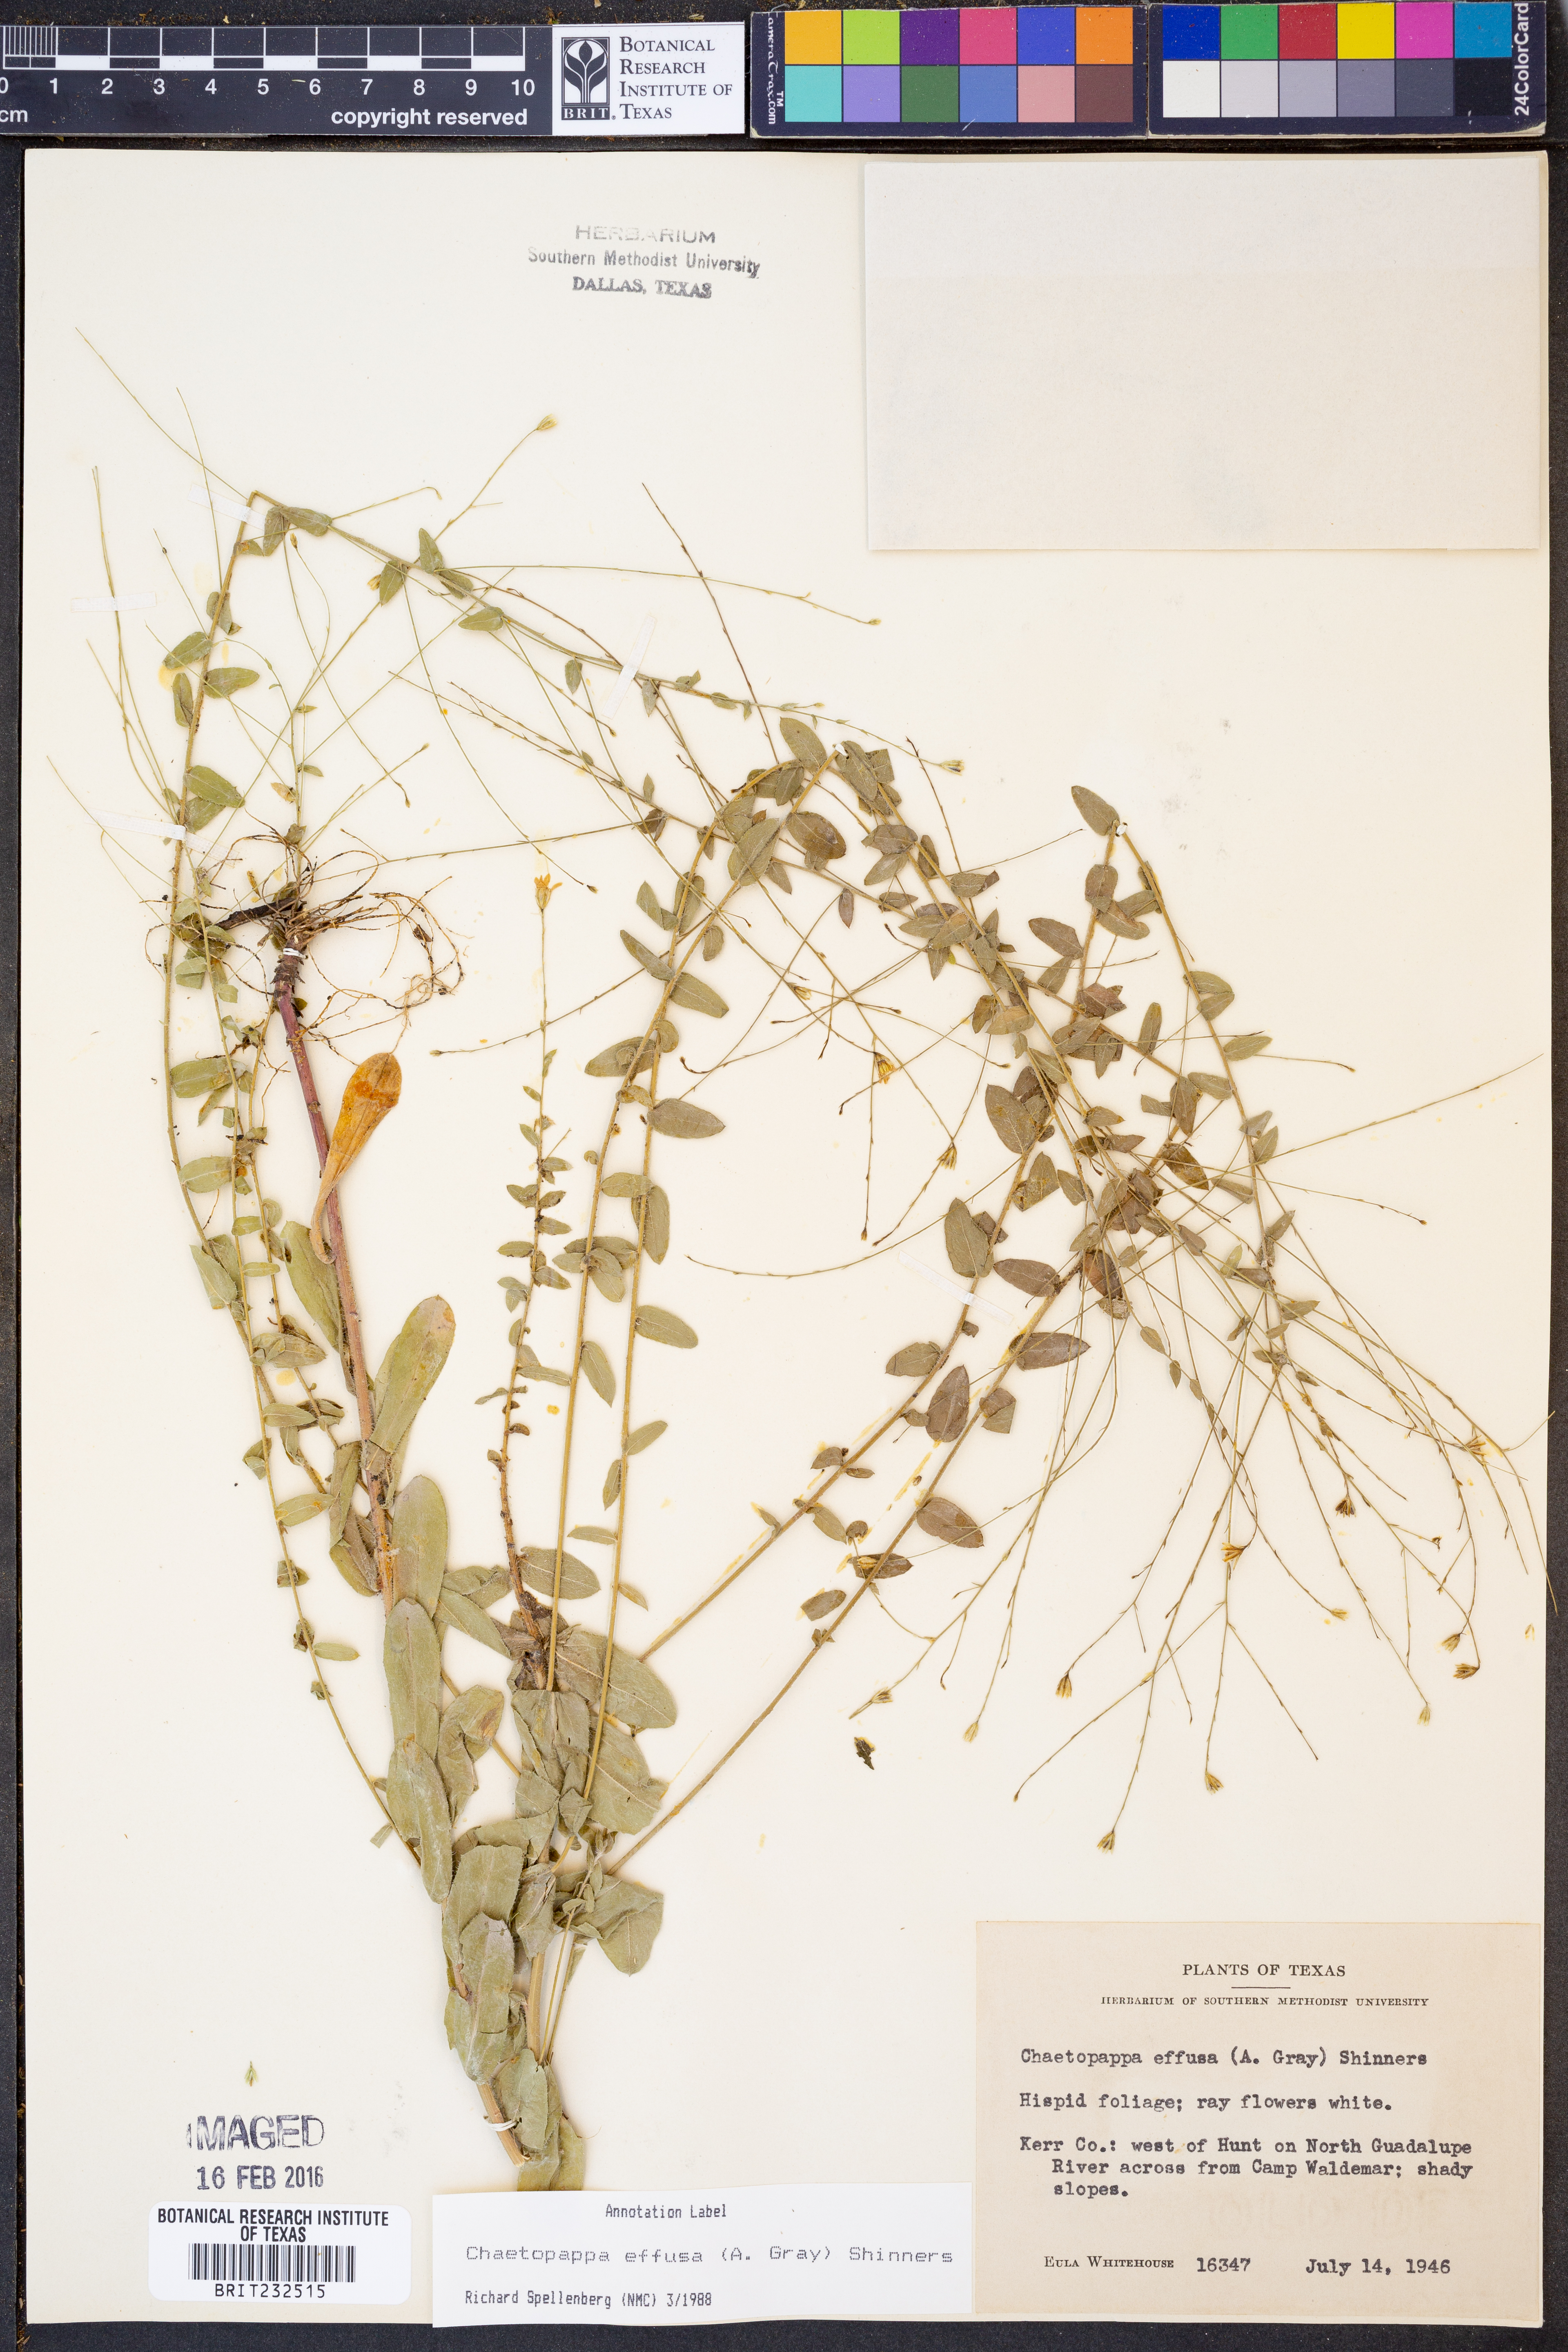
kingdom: Plantae
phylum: Tracheophyta
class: Magnoliopsida
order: Asterales
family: Asteraceae
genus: Chaetopappa
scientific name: Chaetopappa effusa
